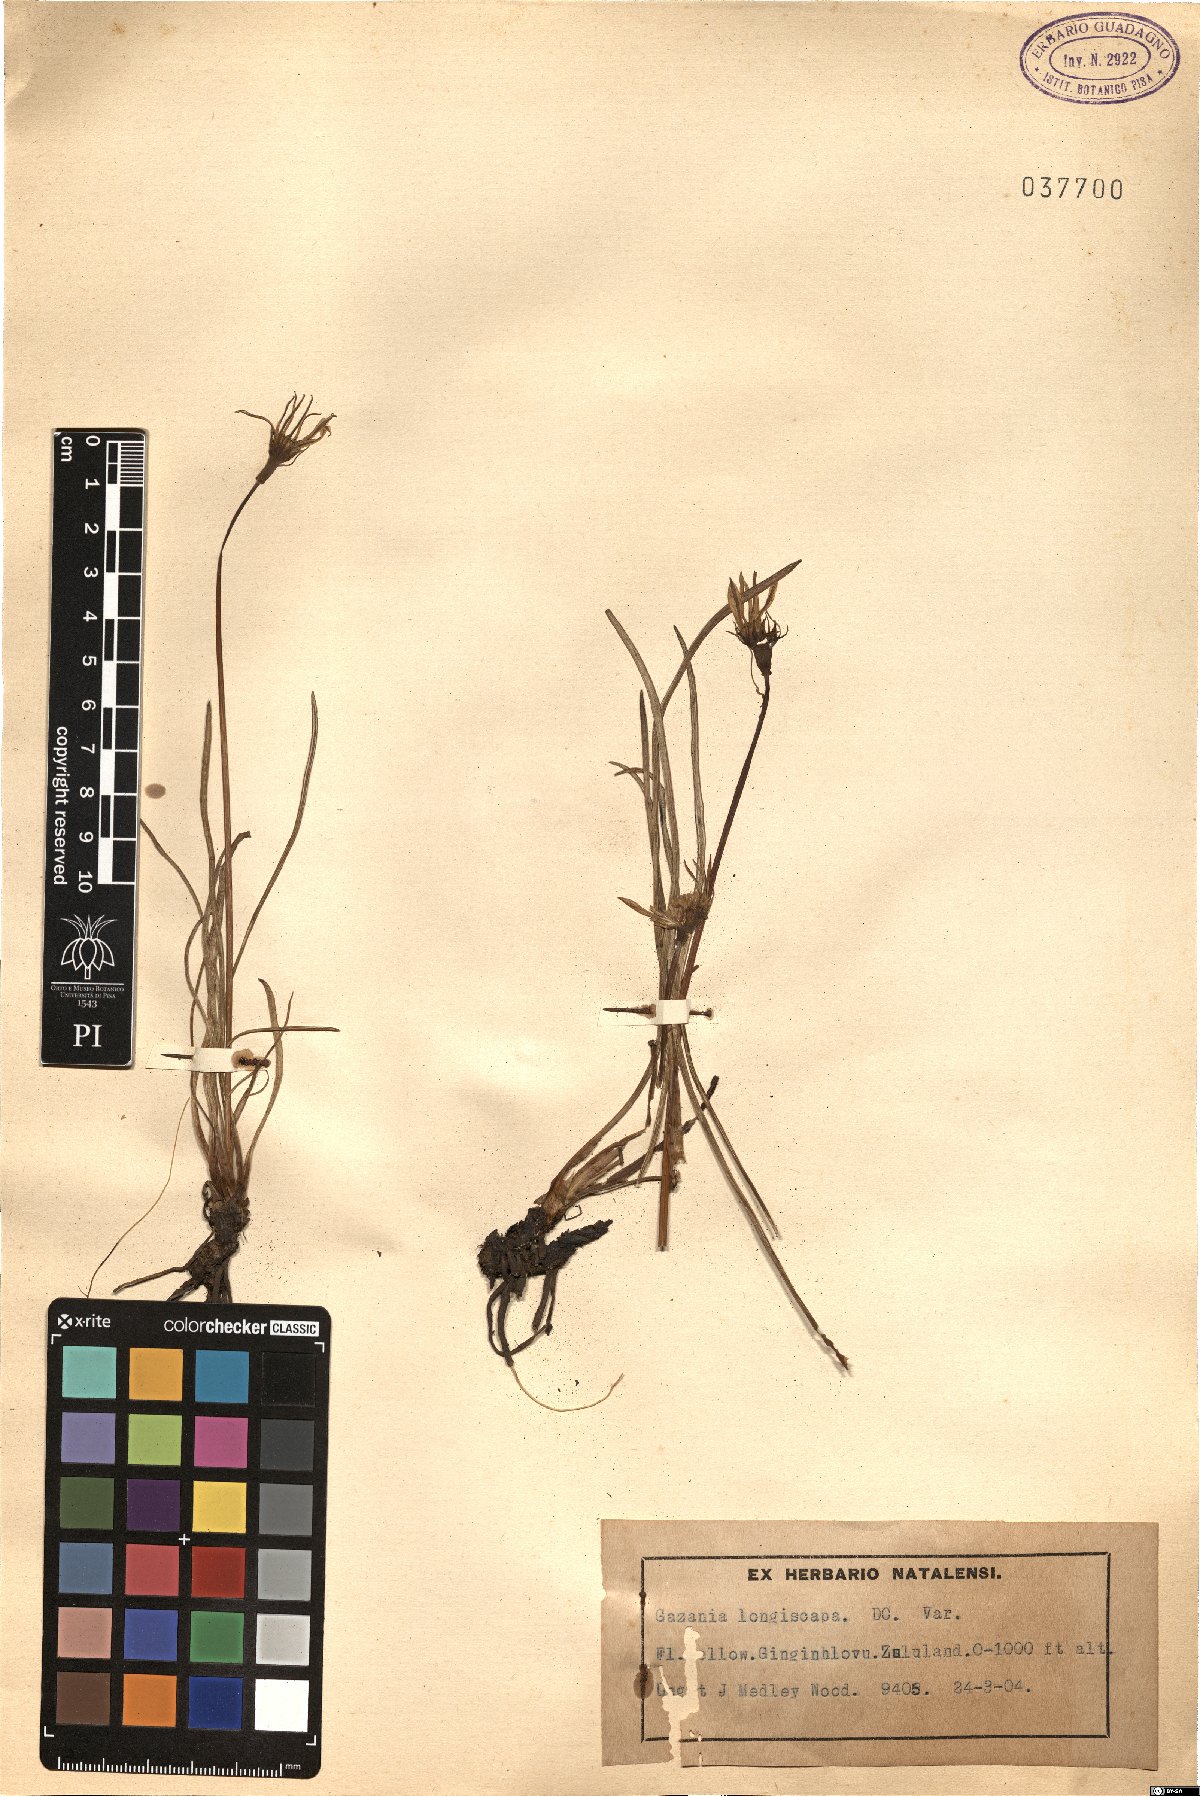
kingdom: Plantae
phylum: Tracheophyta
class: Magnoliopsida
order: Asterales
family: Asteraceae
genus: Gazania
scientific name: Gazania linearis
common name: Treasureflower
